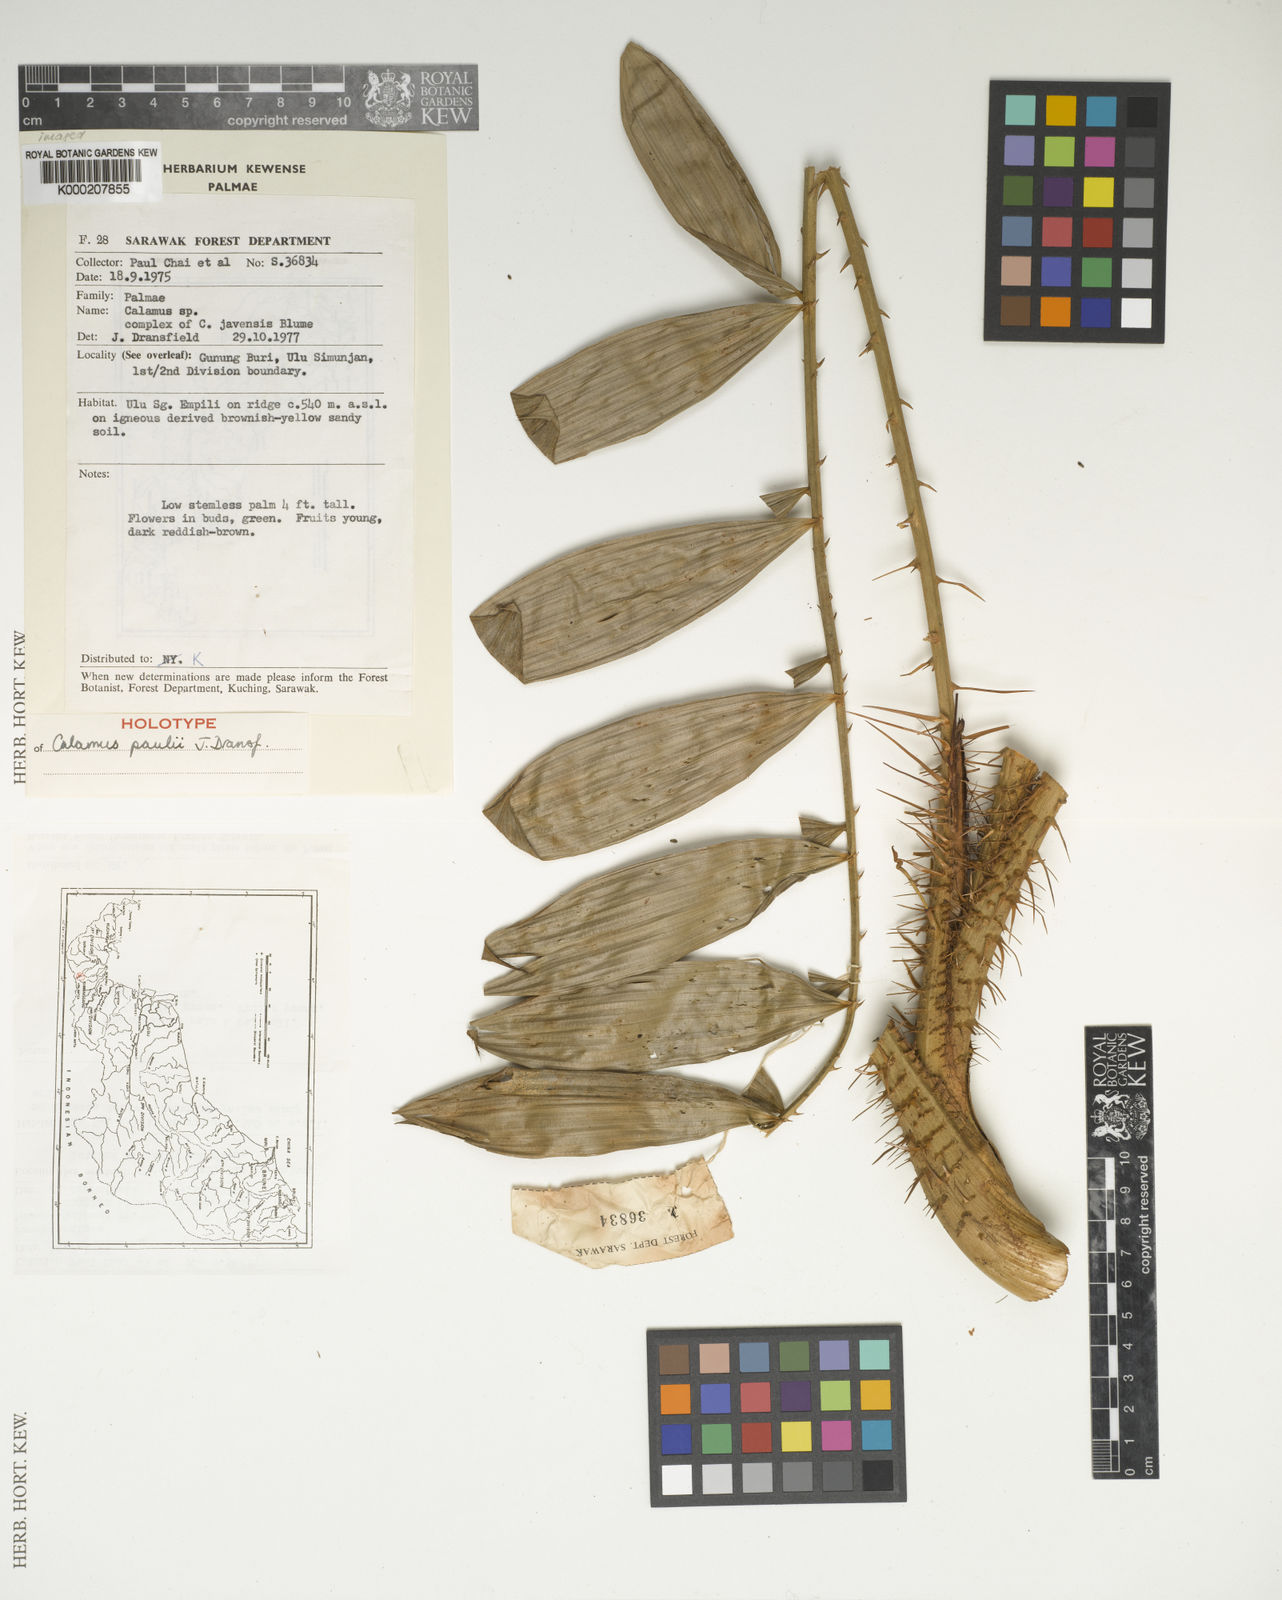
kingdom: Plantae
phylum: Tracheophyta
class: Liliopsida
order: Arecales
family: Arecaceae
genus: Calamus
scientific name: Calamus paulii
